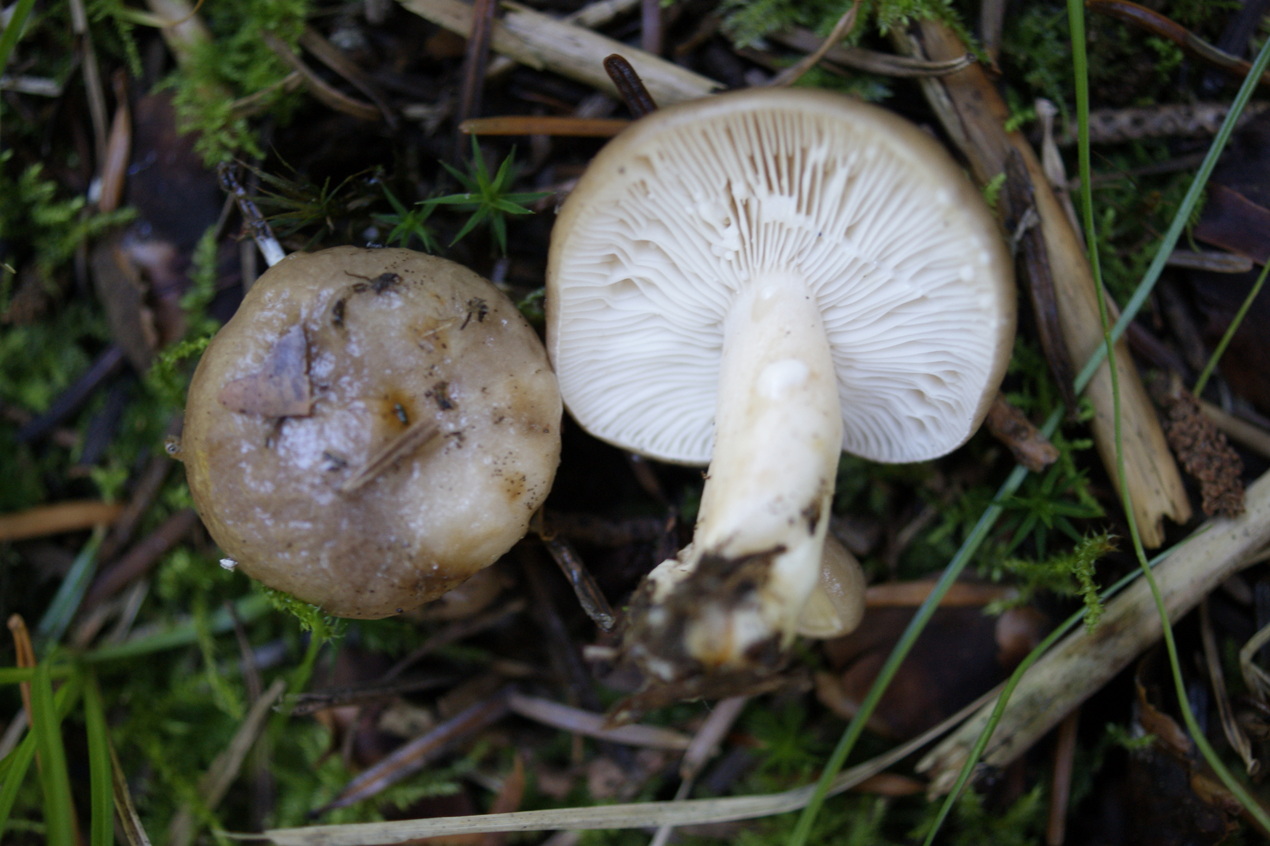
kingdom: Fungi
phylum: Basidiomycota
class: Agaricomycetes
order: Russulales
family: Russulaceae
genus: Lactarius
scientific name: Lactarius albocarneus
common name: ædelgran-mælkehat
